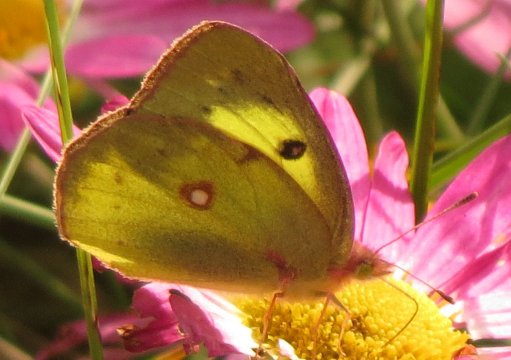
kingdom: Animalia
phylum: Arthropoda
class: Insecta
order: Lepidoptera
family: Pieridae
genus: Colias
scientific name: Colias philodice
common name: Clouded Sulphur
